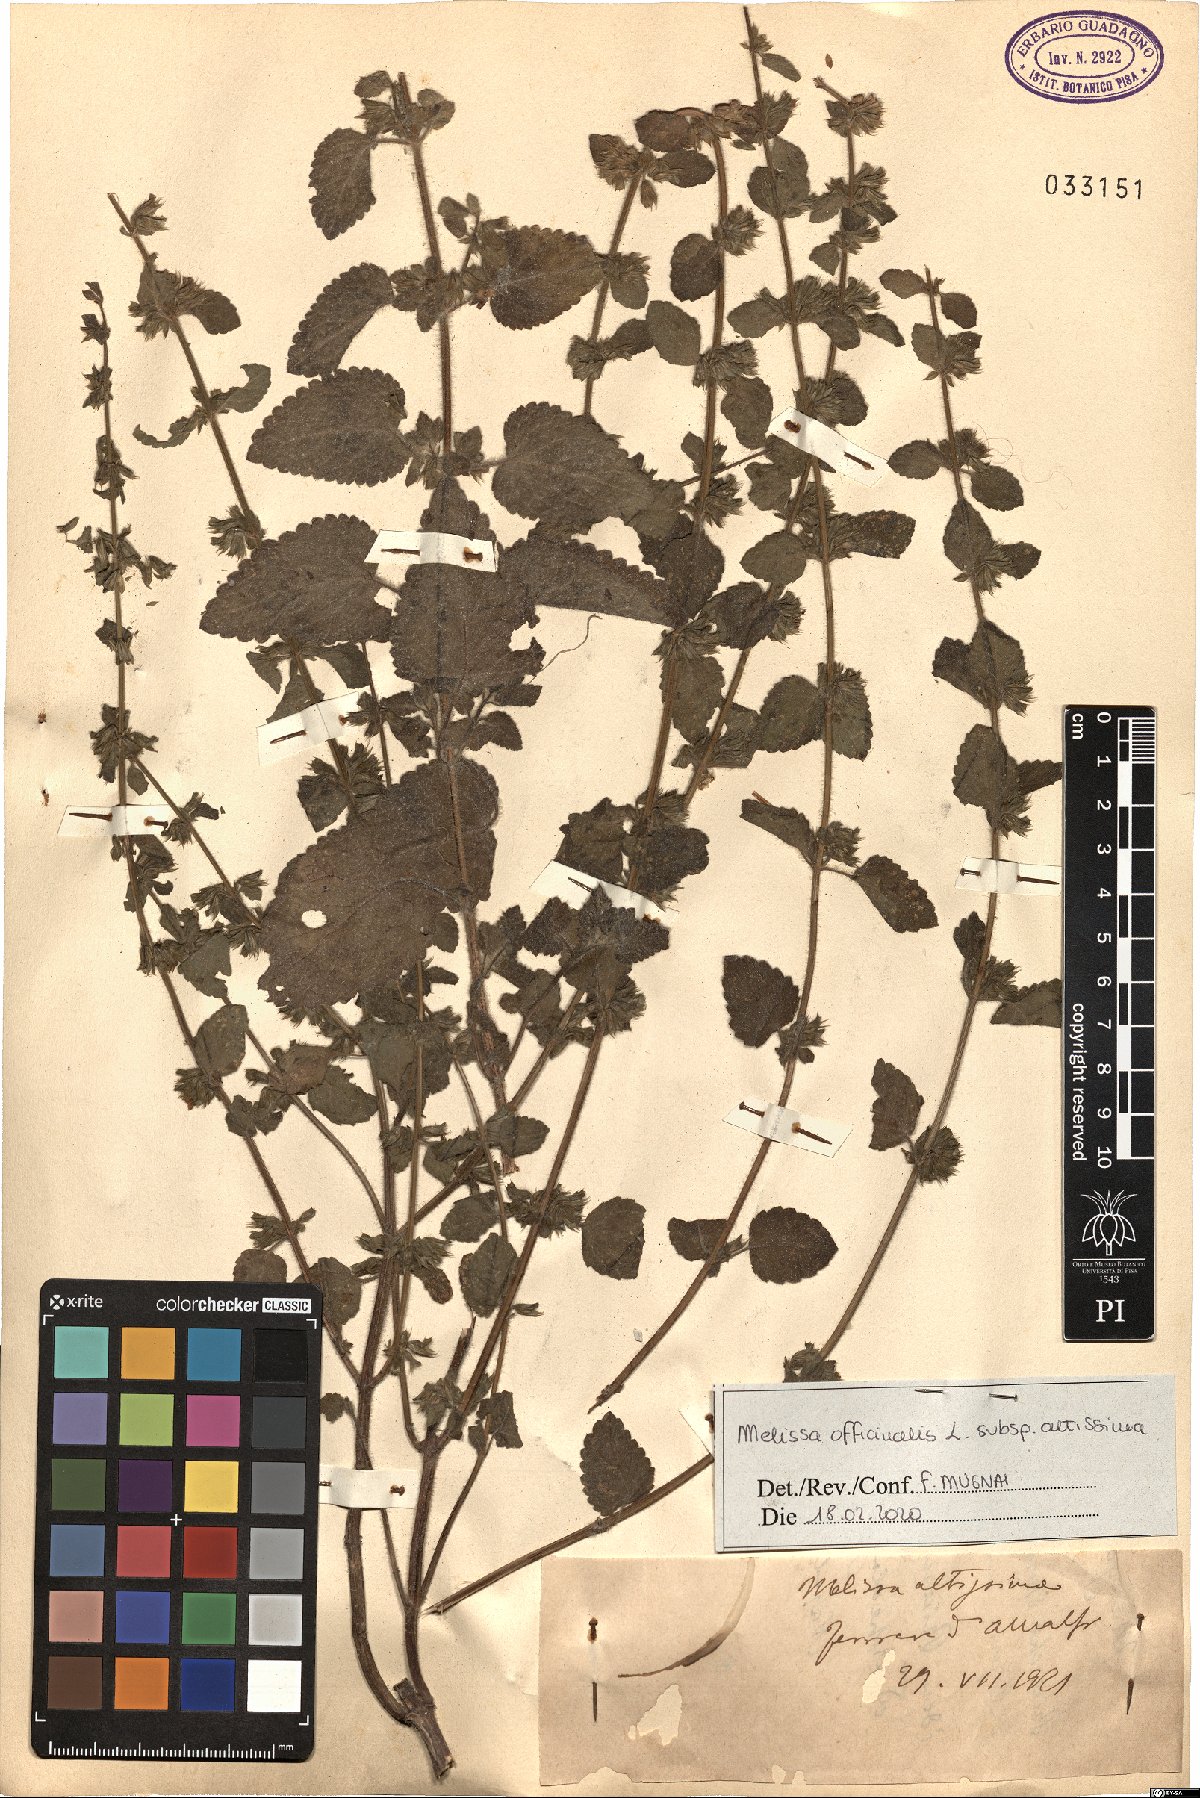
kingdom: Plantae
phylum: Tracheophyta
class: Magnoliopsida
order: Lamiales
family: Lamiaceae
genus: Melissa
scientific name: Melissa officinalis
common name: Balm
